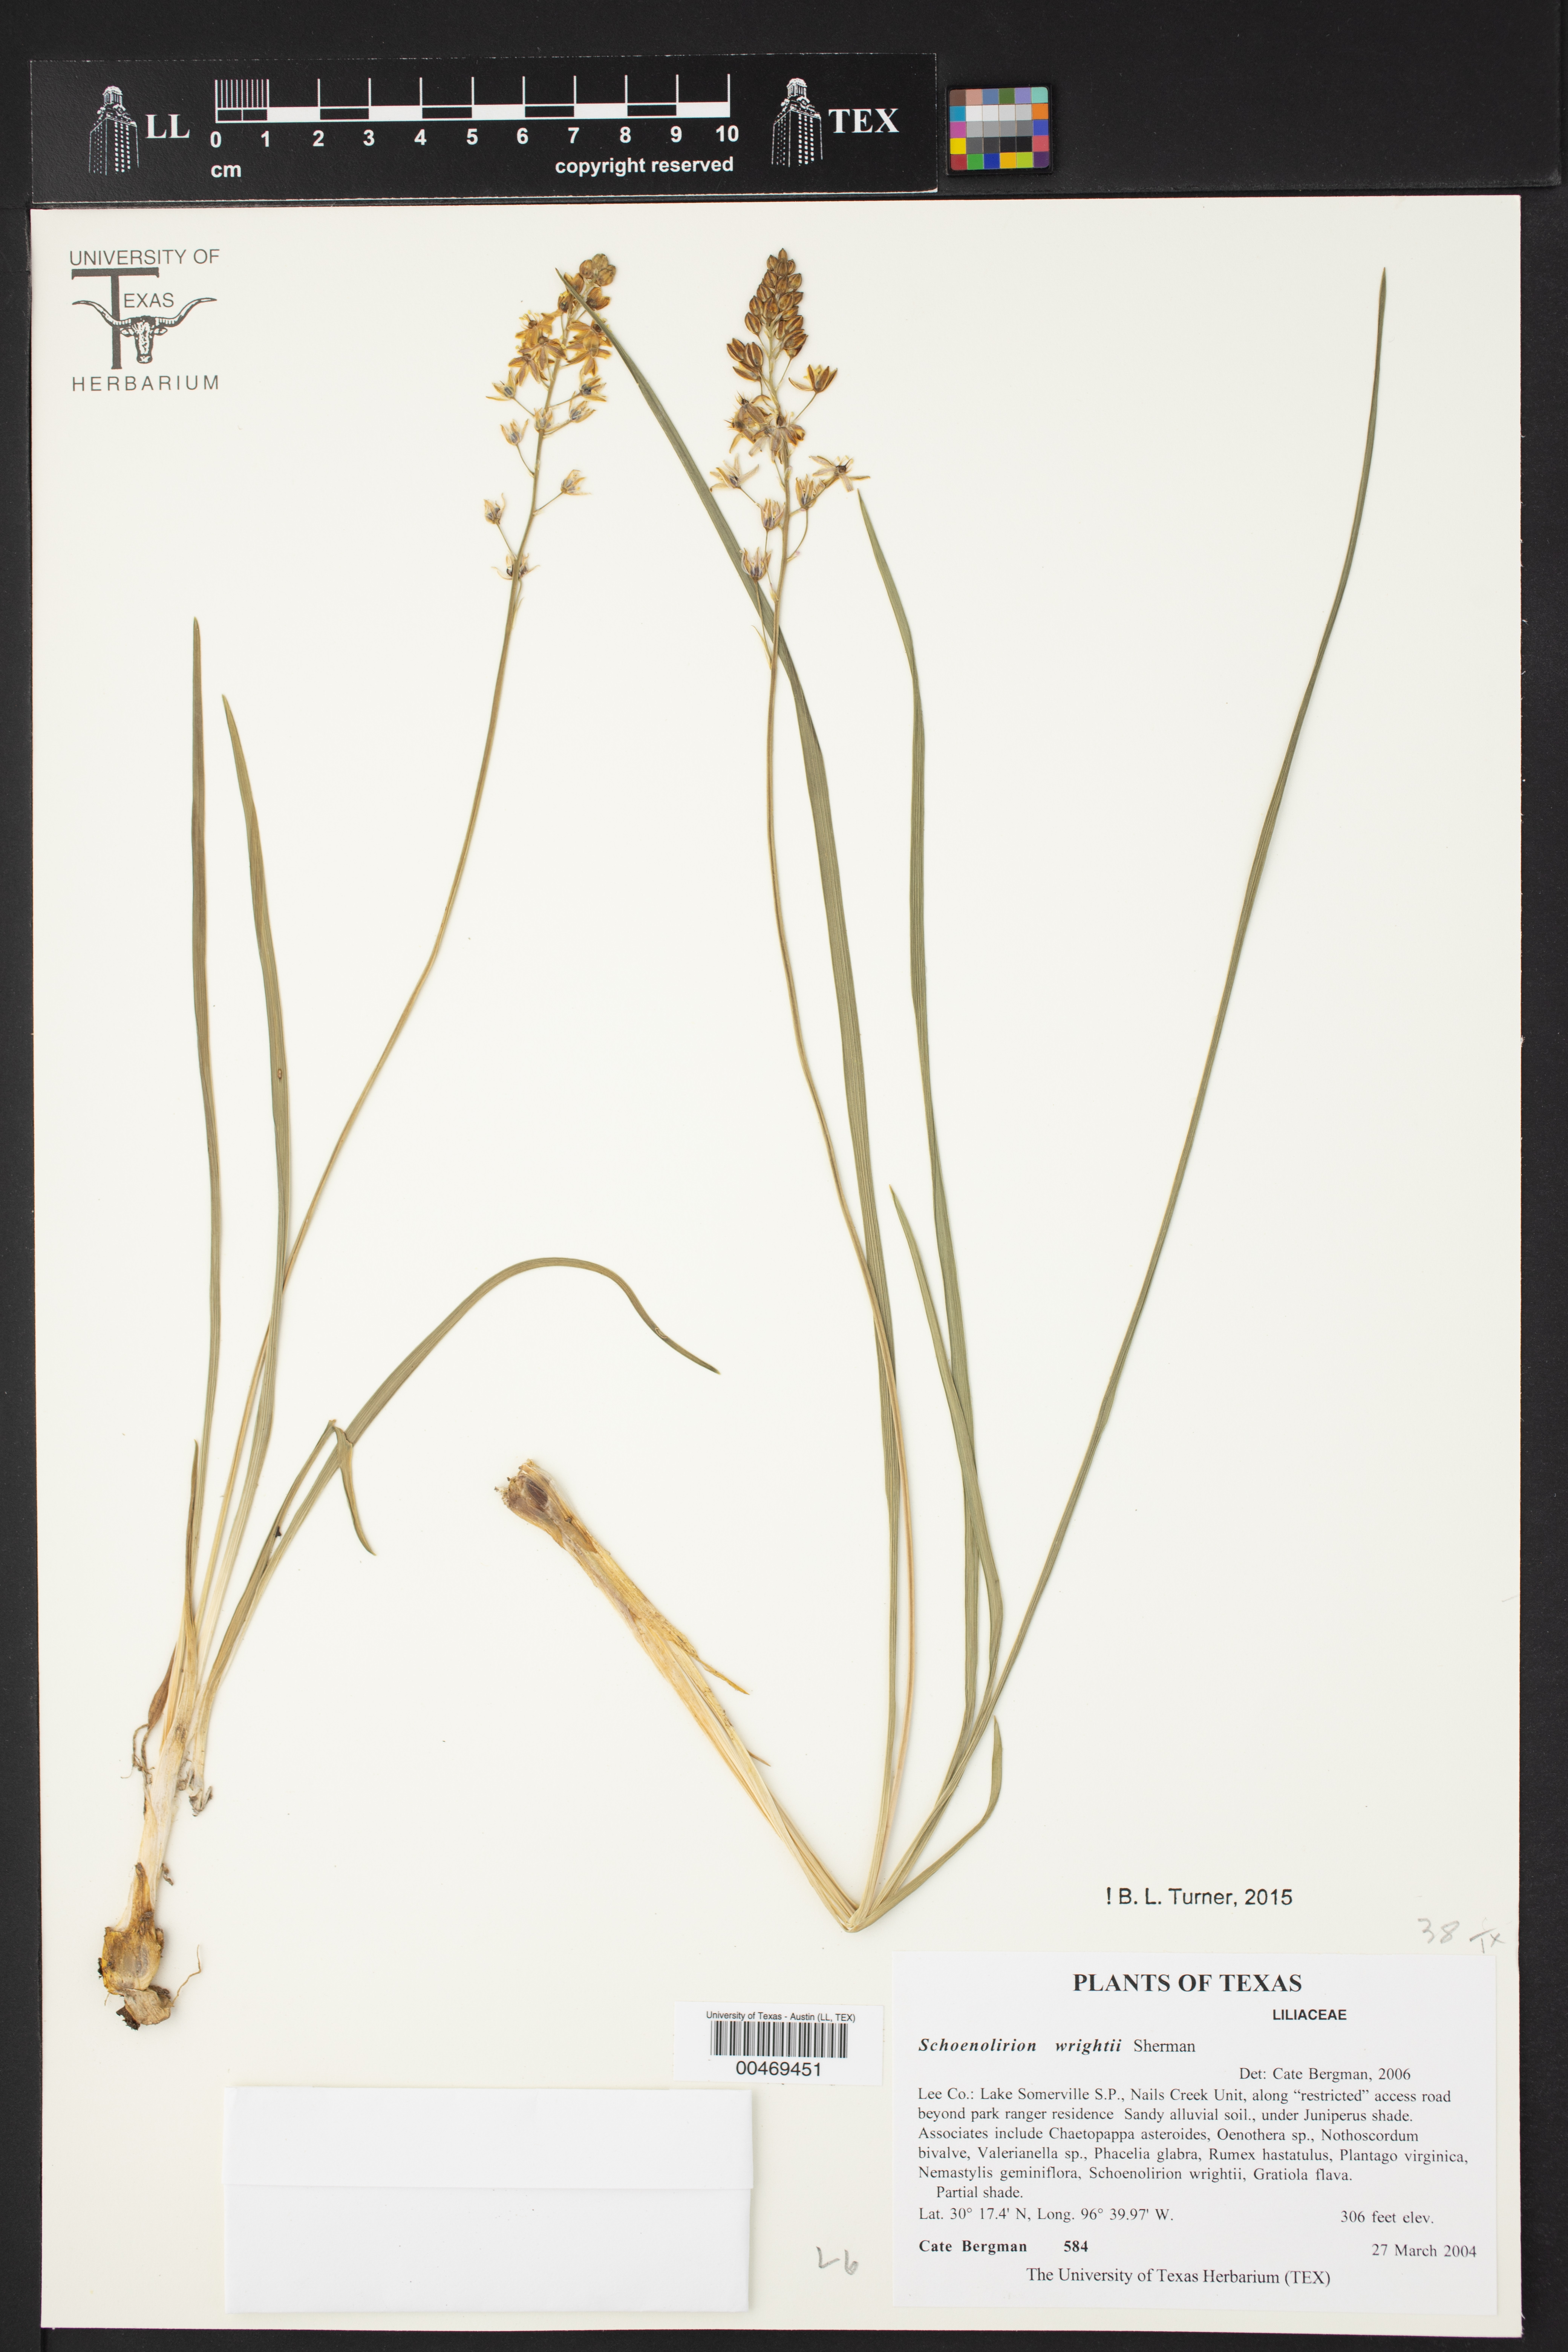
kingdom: Plantae
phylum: Tracheophyta
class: Liliopsida
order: Asparagales
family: Asparagaceae
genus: Schoenolirion
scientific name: Schoenolirion wrightii
